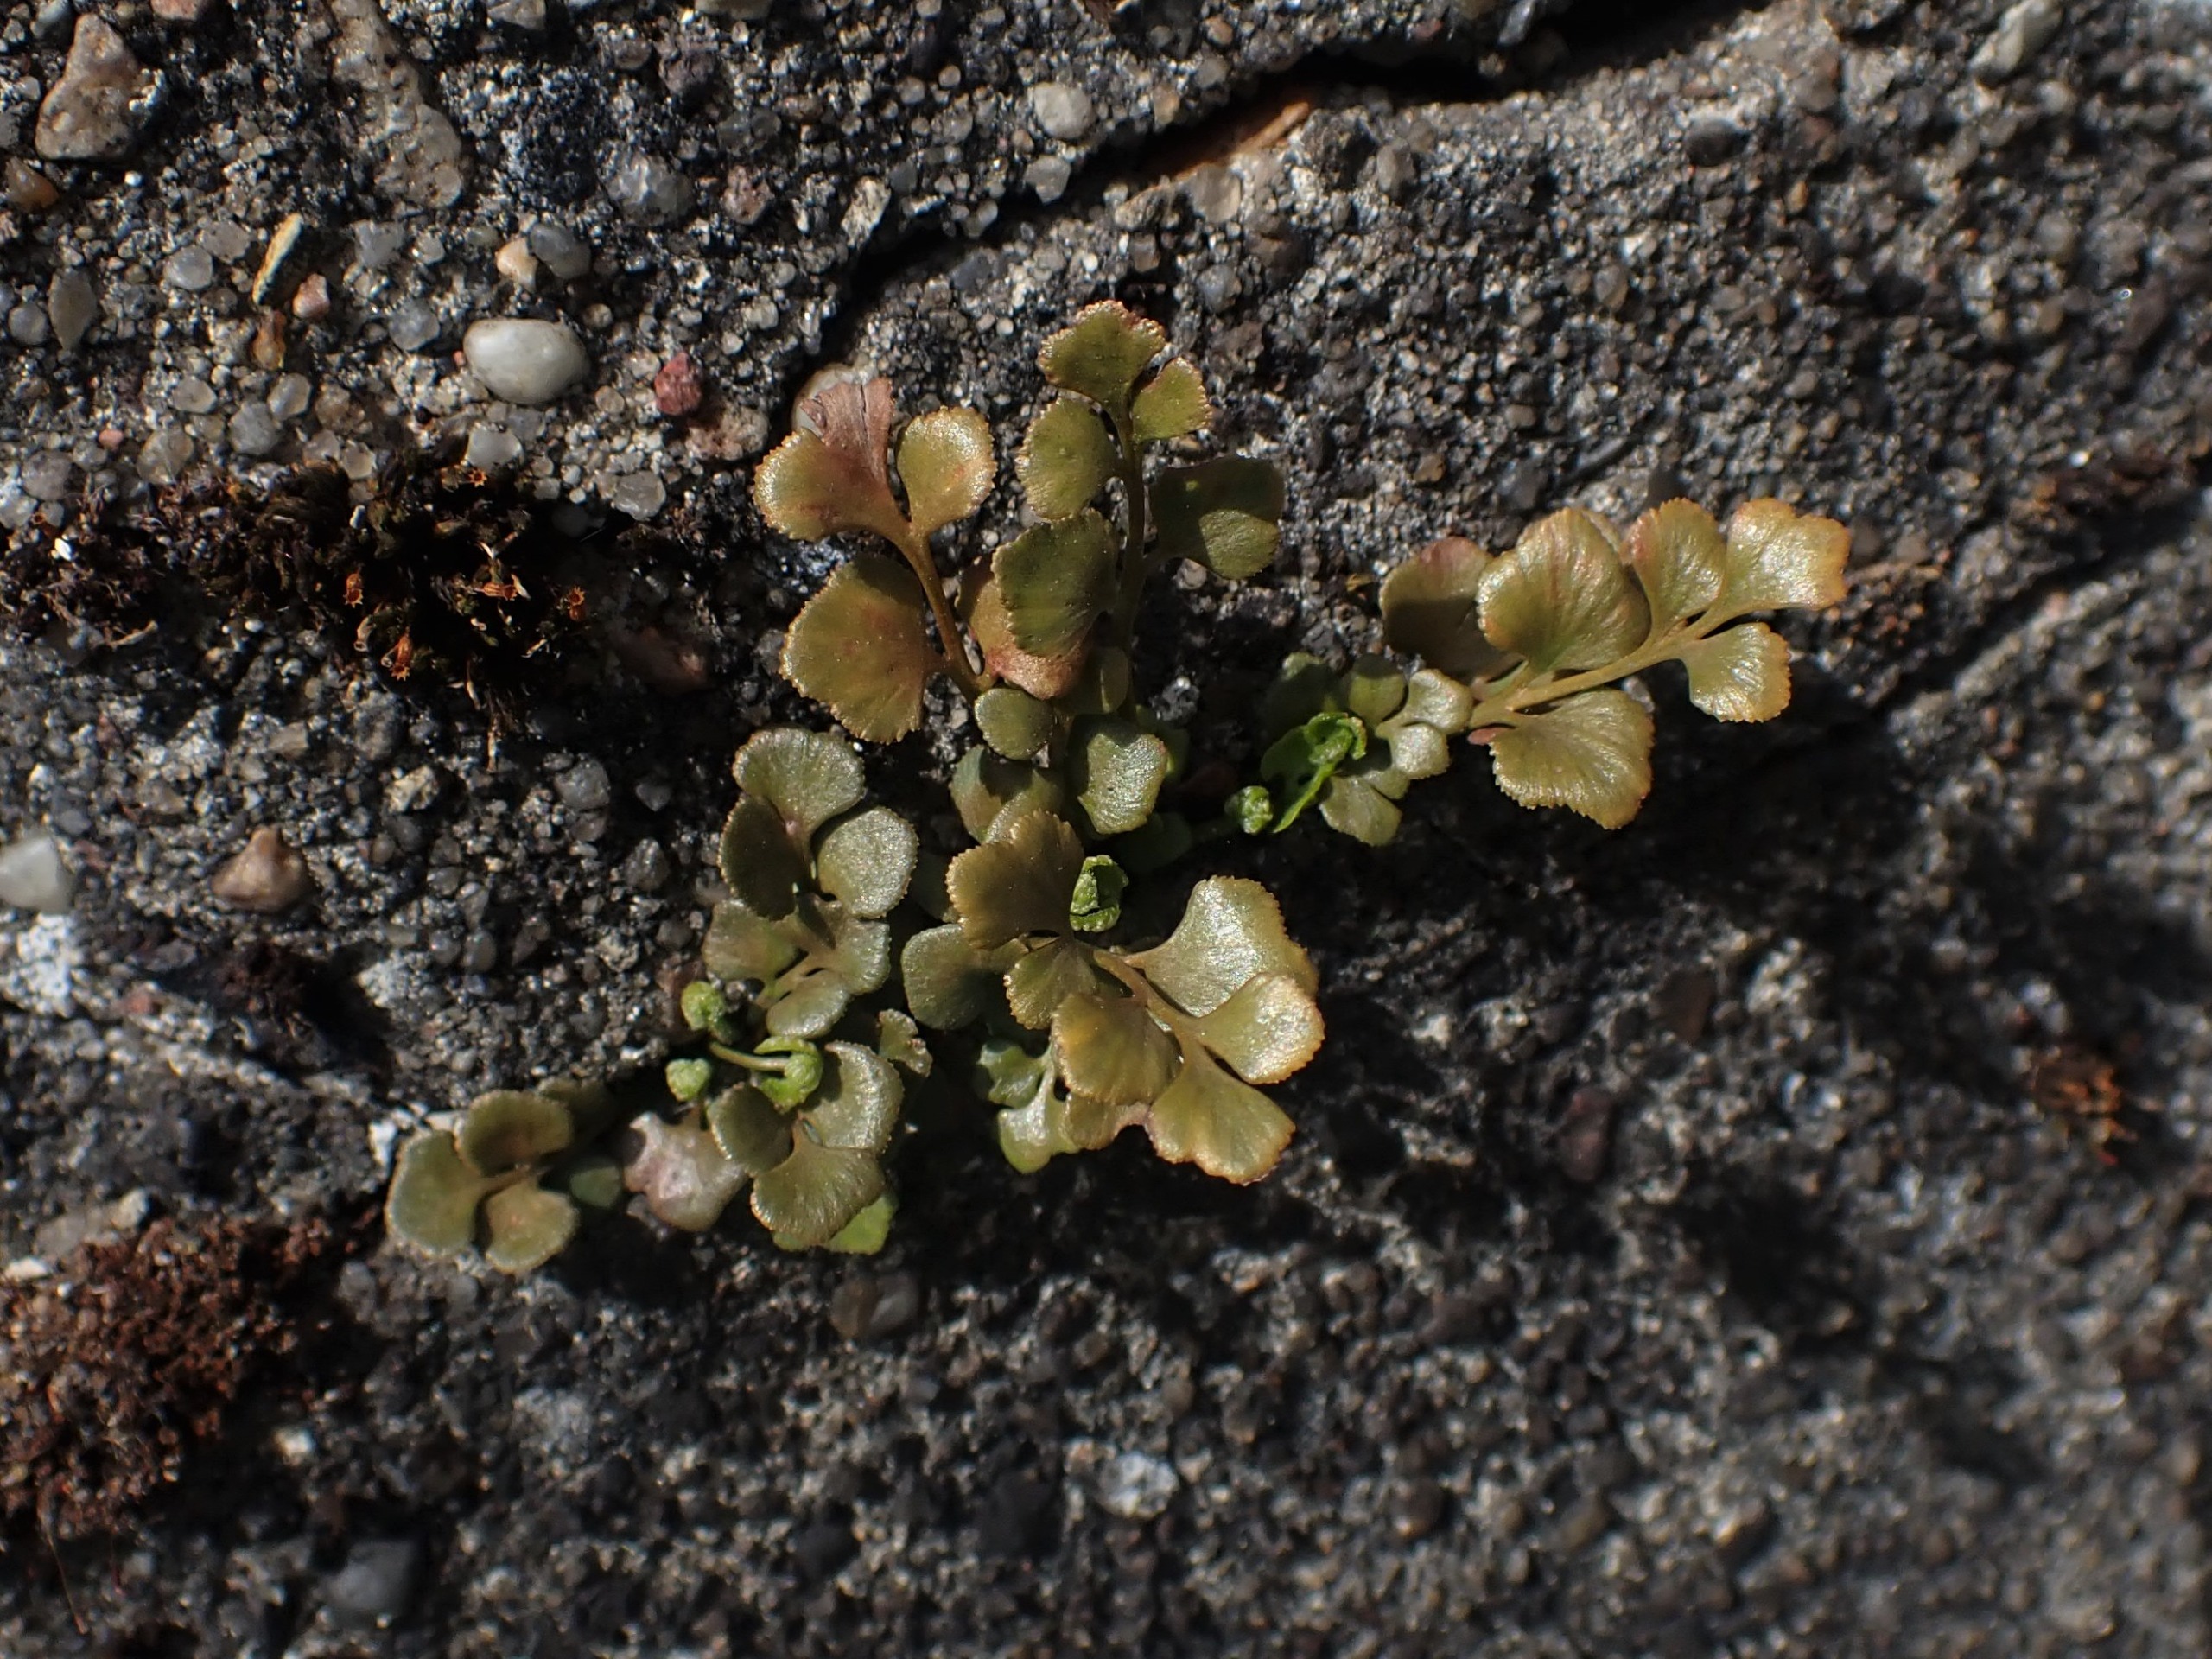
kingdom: Plantae
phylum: Tracheophyta
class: Polypodiopsida
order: Polypodiales
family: Aspleniaceae
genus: Asplenium
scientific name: Asplenium ruta-muraria
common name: Murrude
